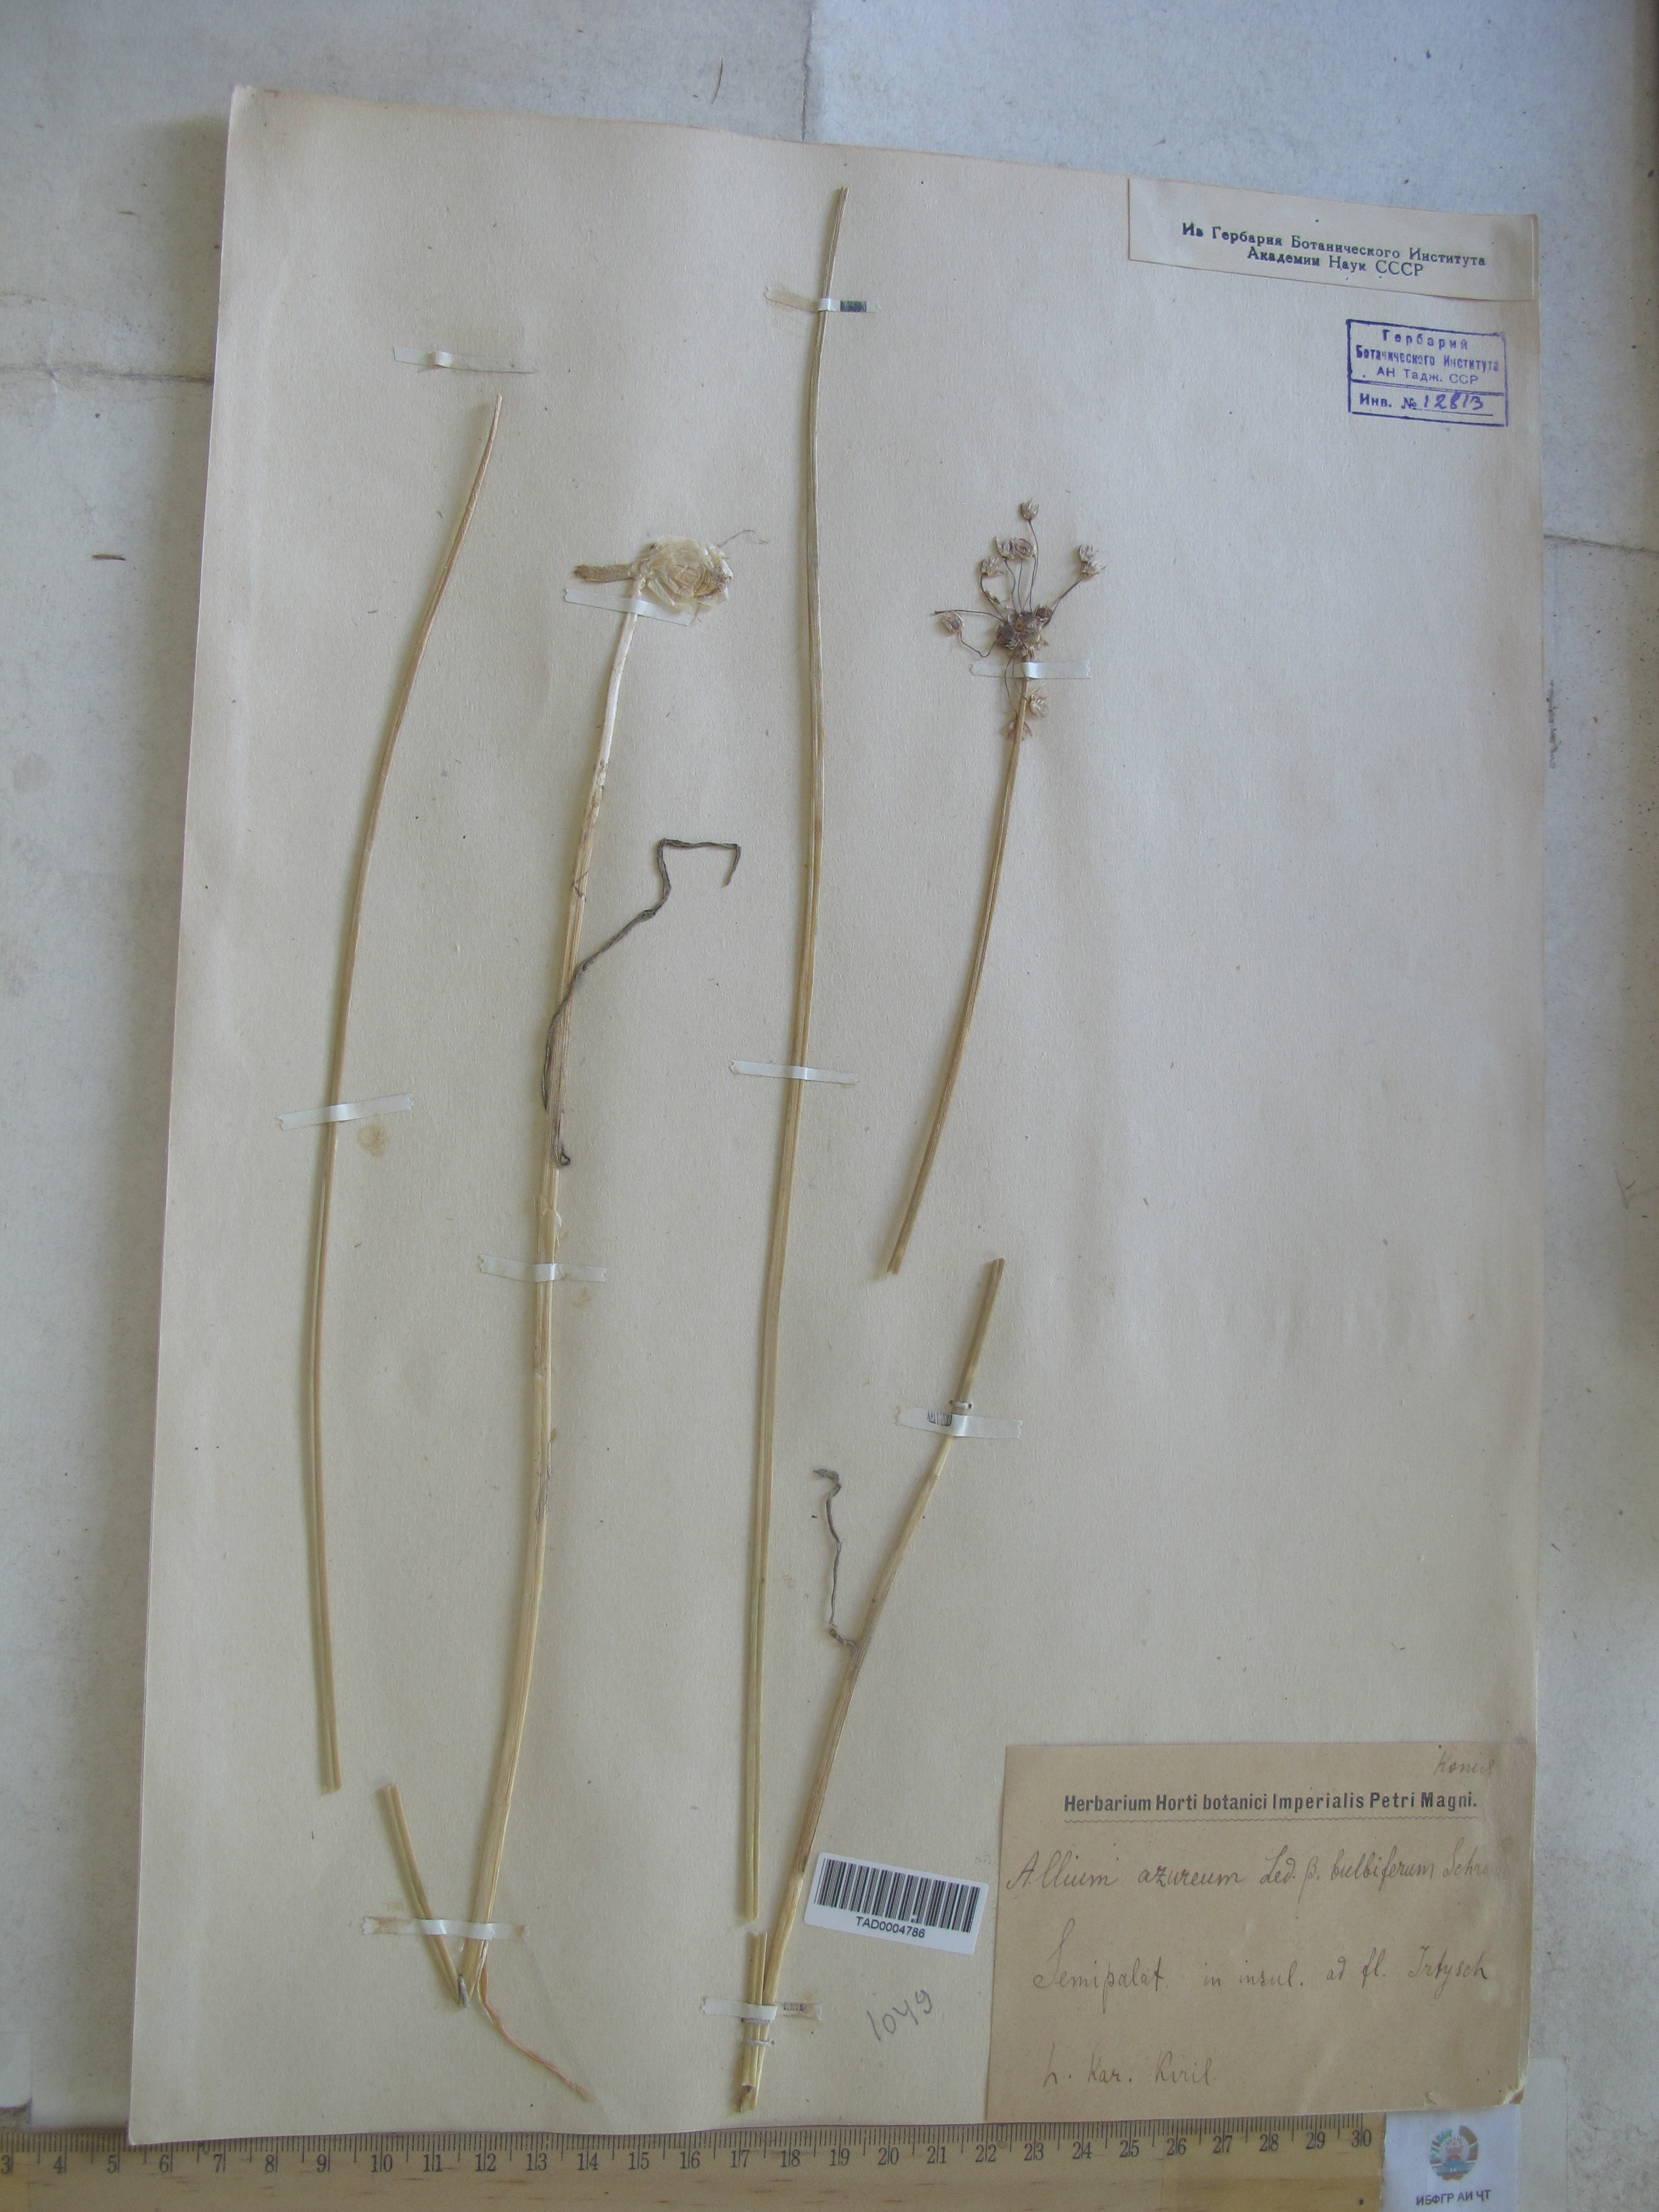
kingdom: Plantae
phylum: Tracheophyta
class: Liliopsida
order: Asparagales
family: Amaryllidaceae
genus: Allium
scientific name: Allium
